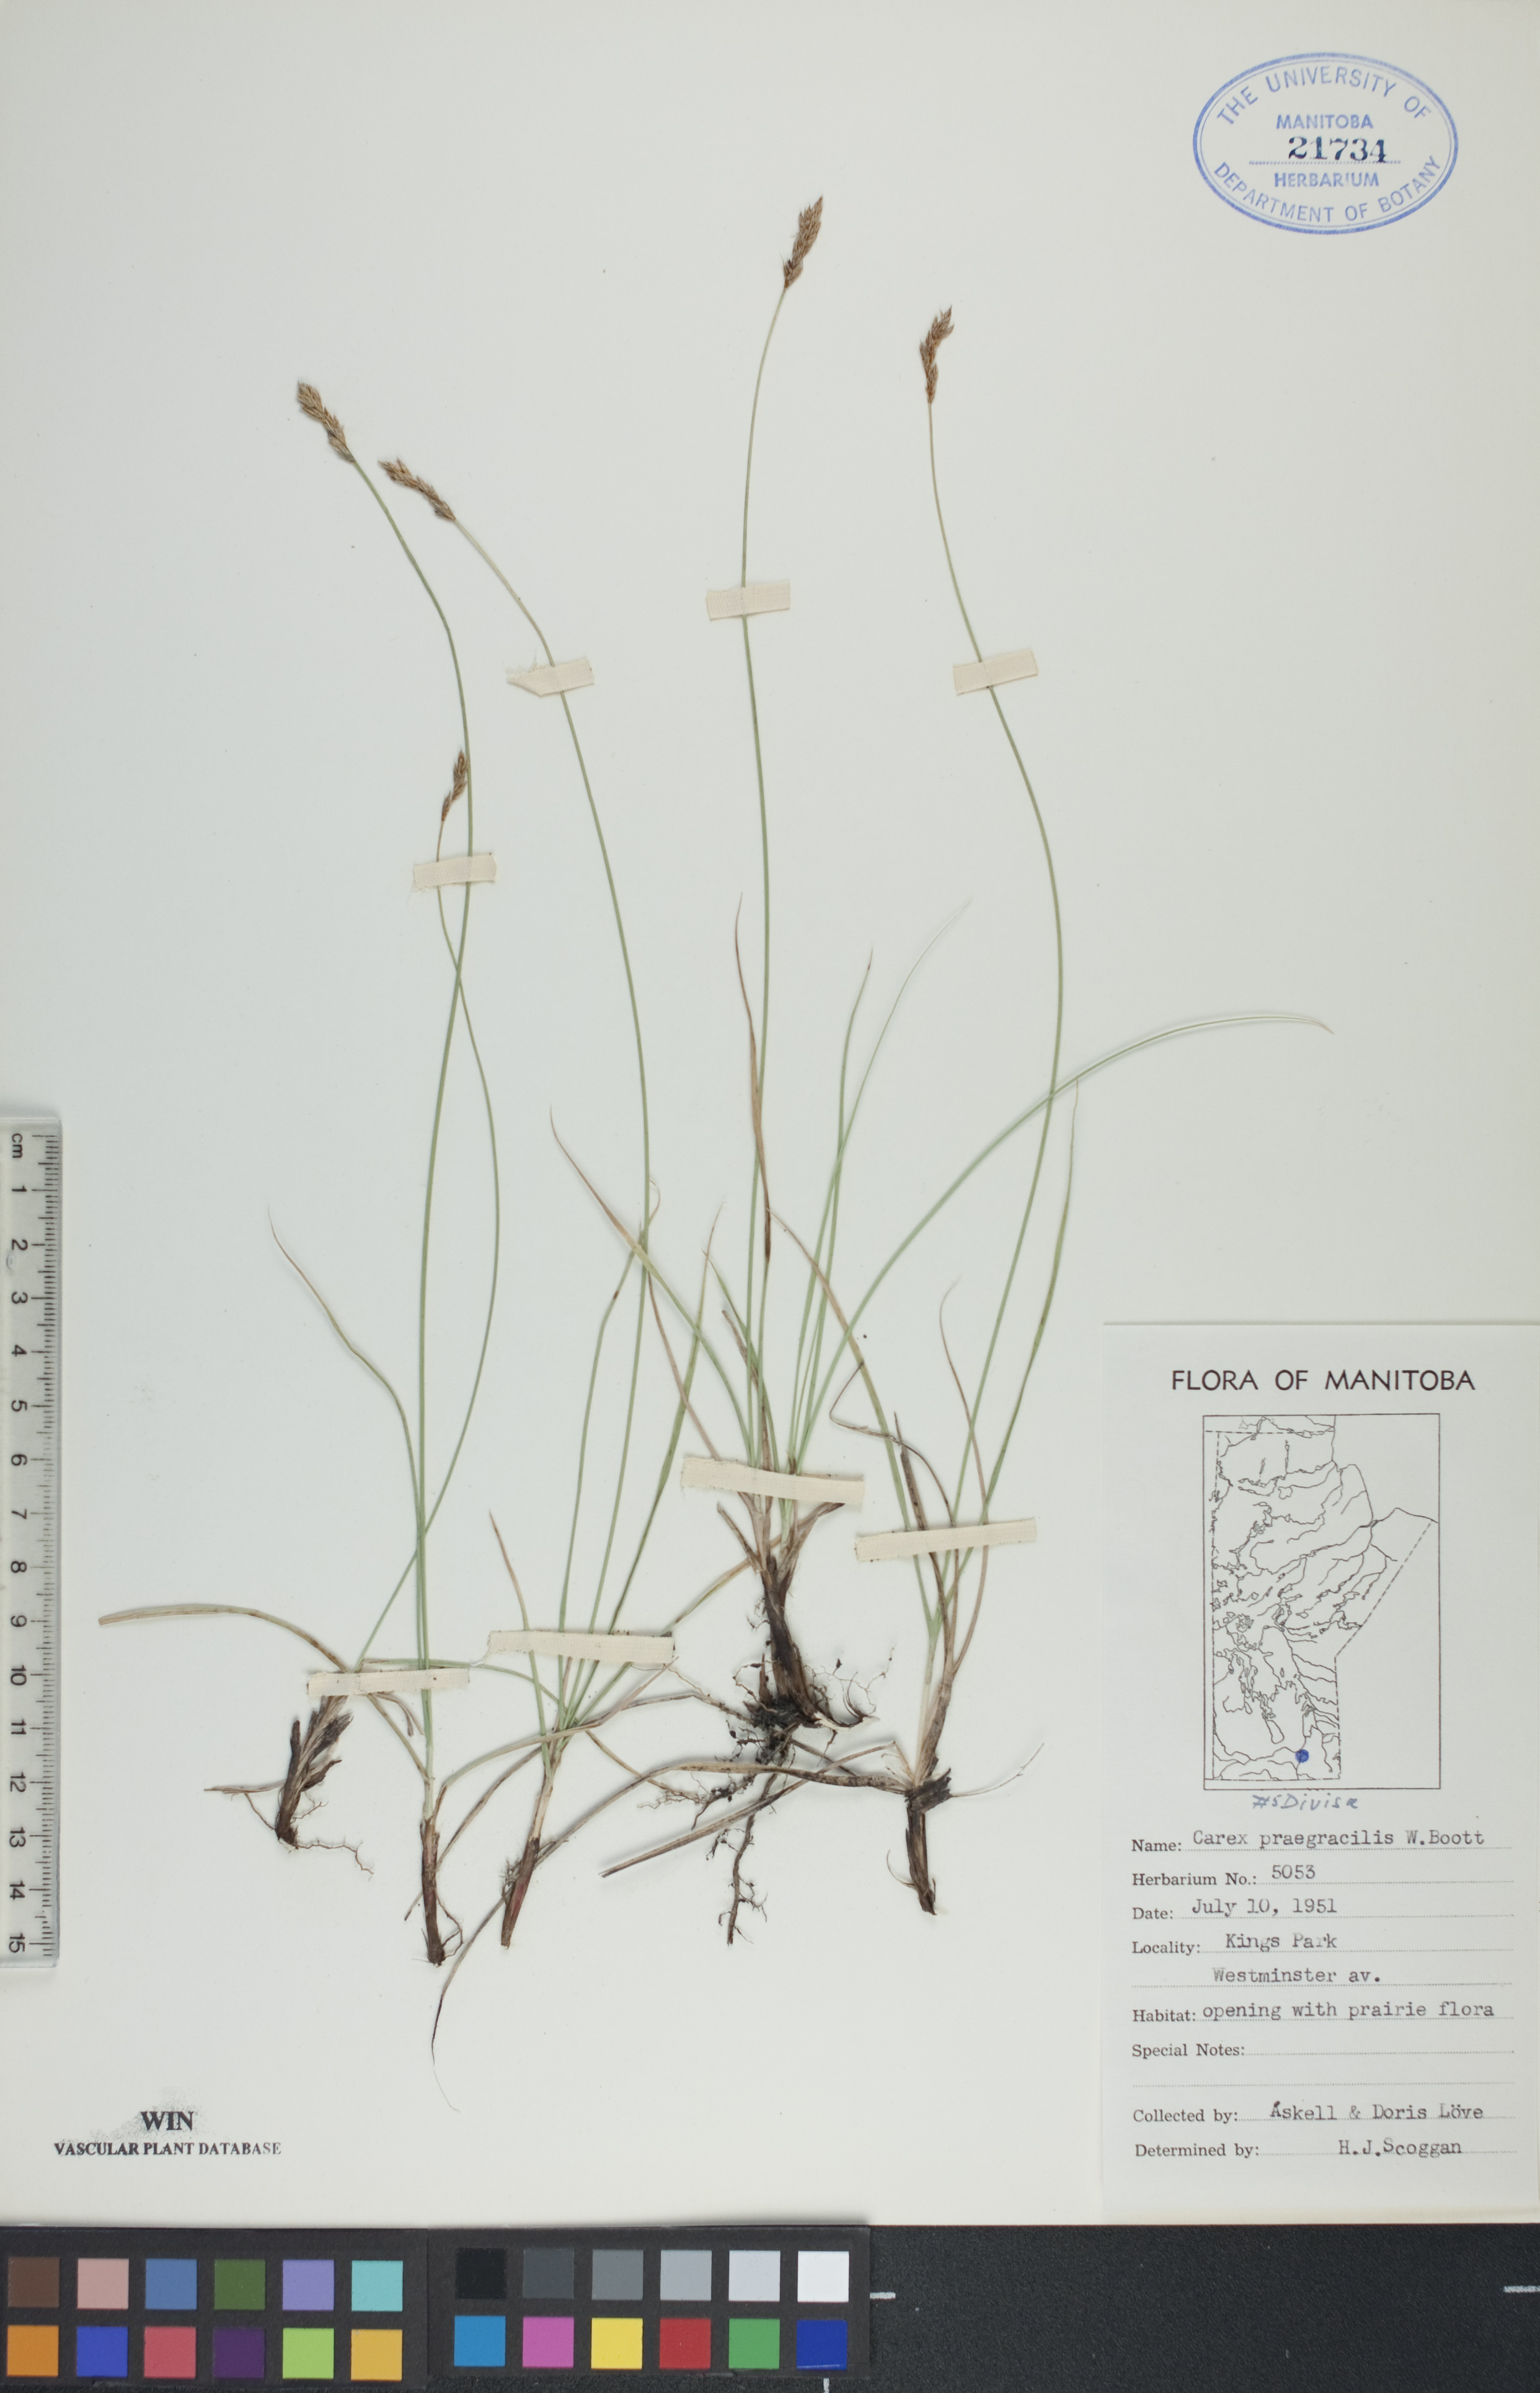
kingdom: Plantae
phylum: Tracheophyta
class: Liliopsida
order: Poales
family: Cyperaceae
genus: Carex
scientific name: Carex praegracilis
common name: Black creeper sedge
